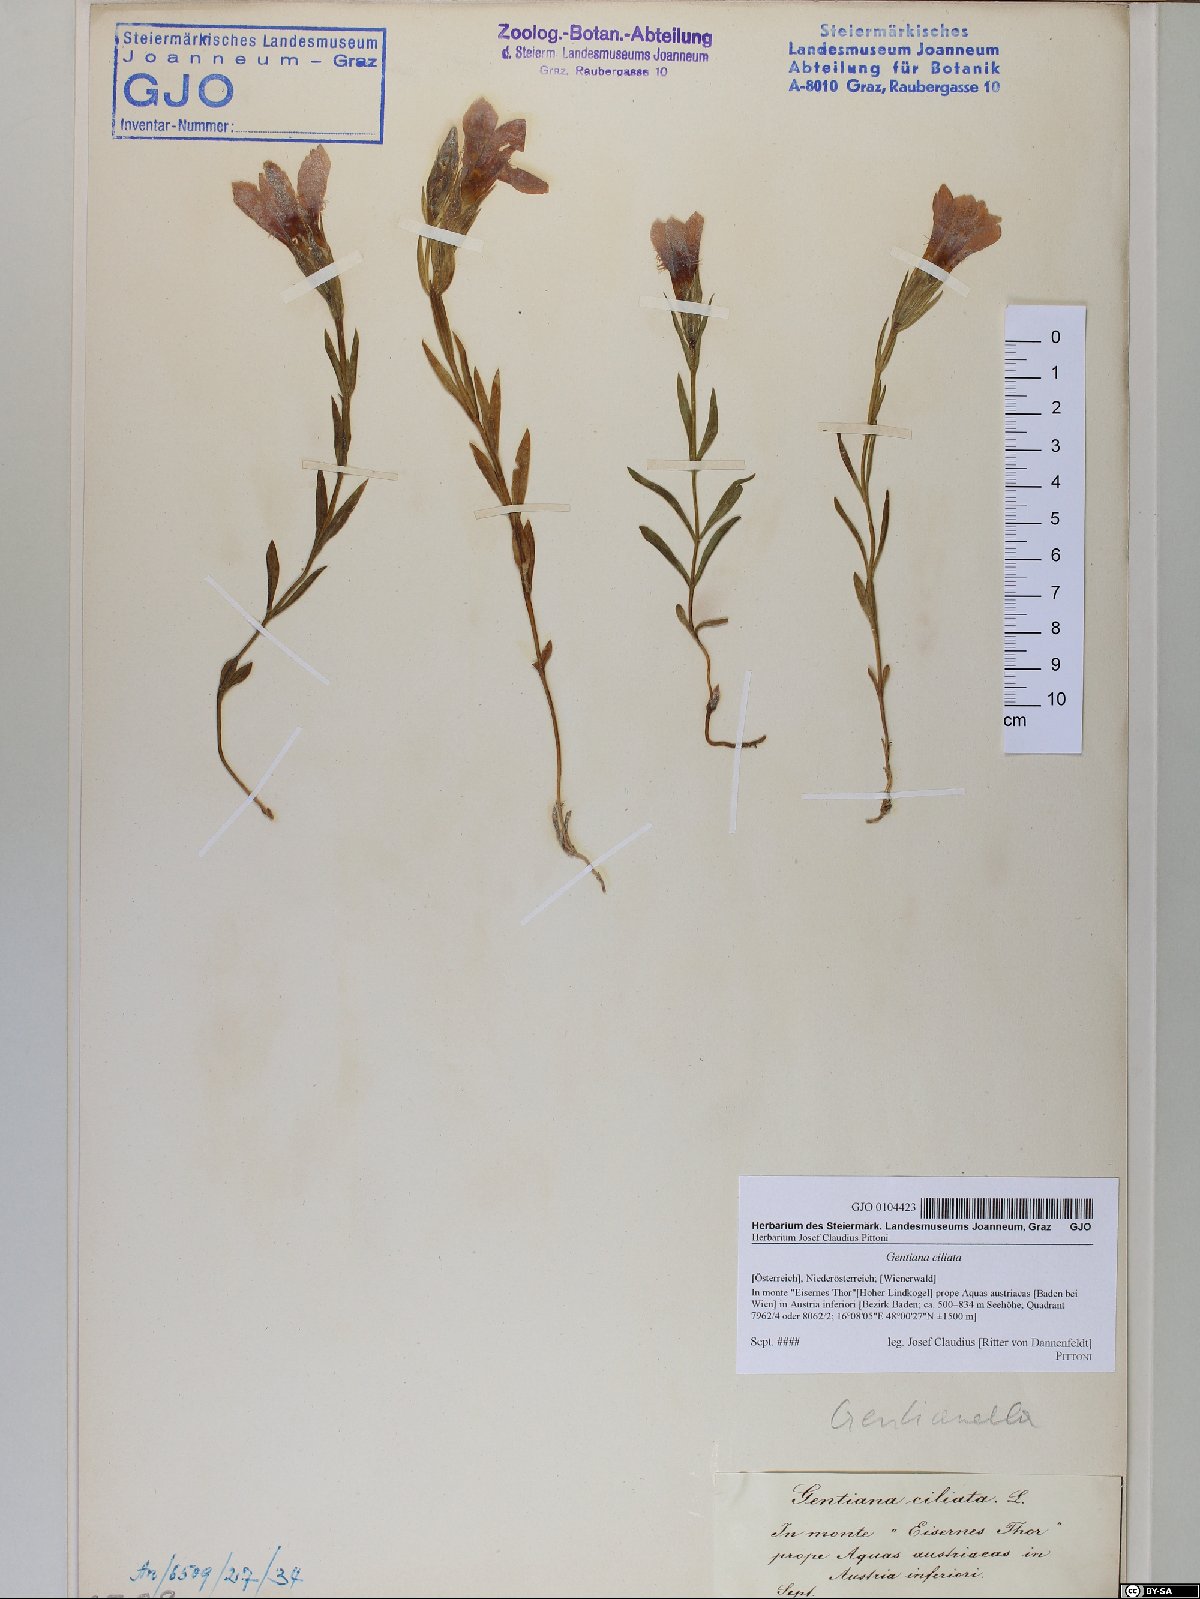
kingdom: Plantae
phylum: Tracheophyta
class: Magnoliopsida
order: Gentianales
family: Gentianaceae
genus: Gentianopsis
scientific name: Gentianopsis ciliata
